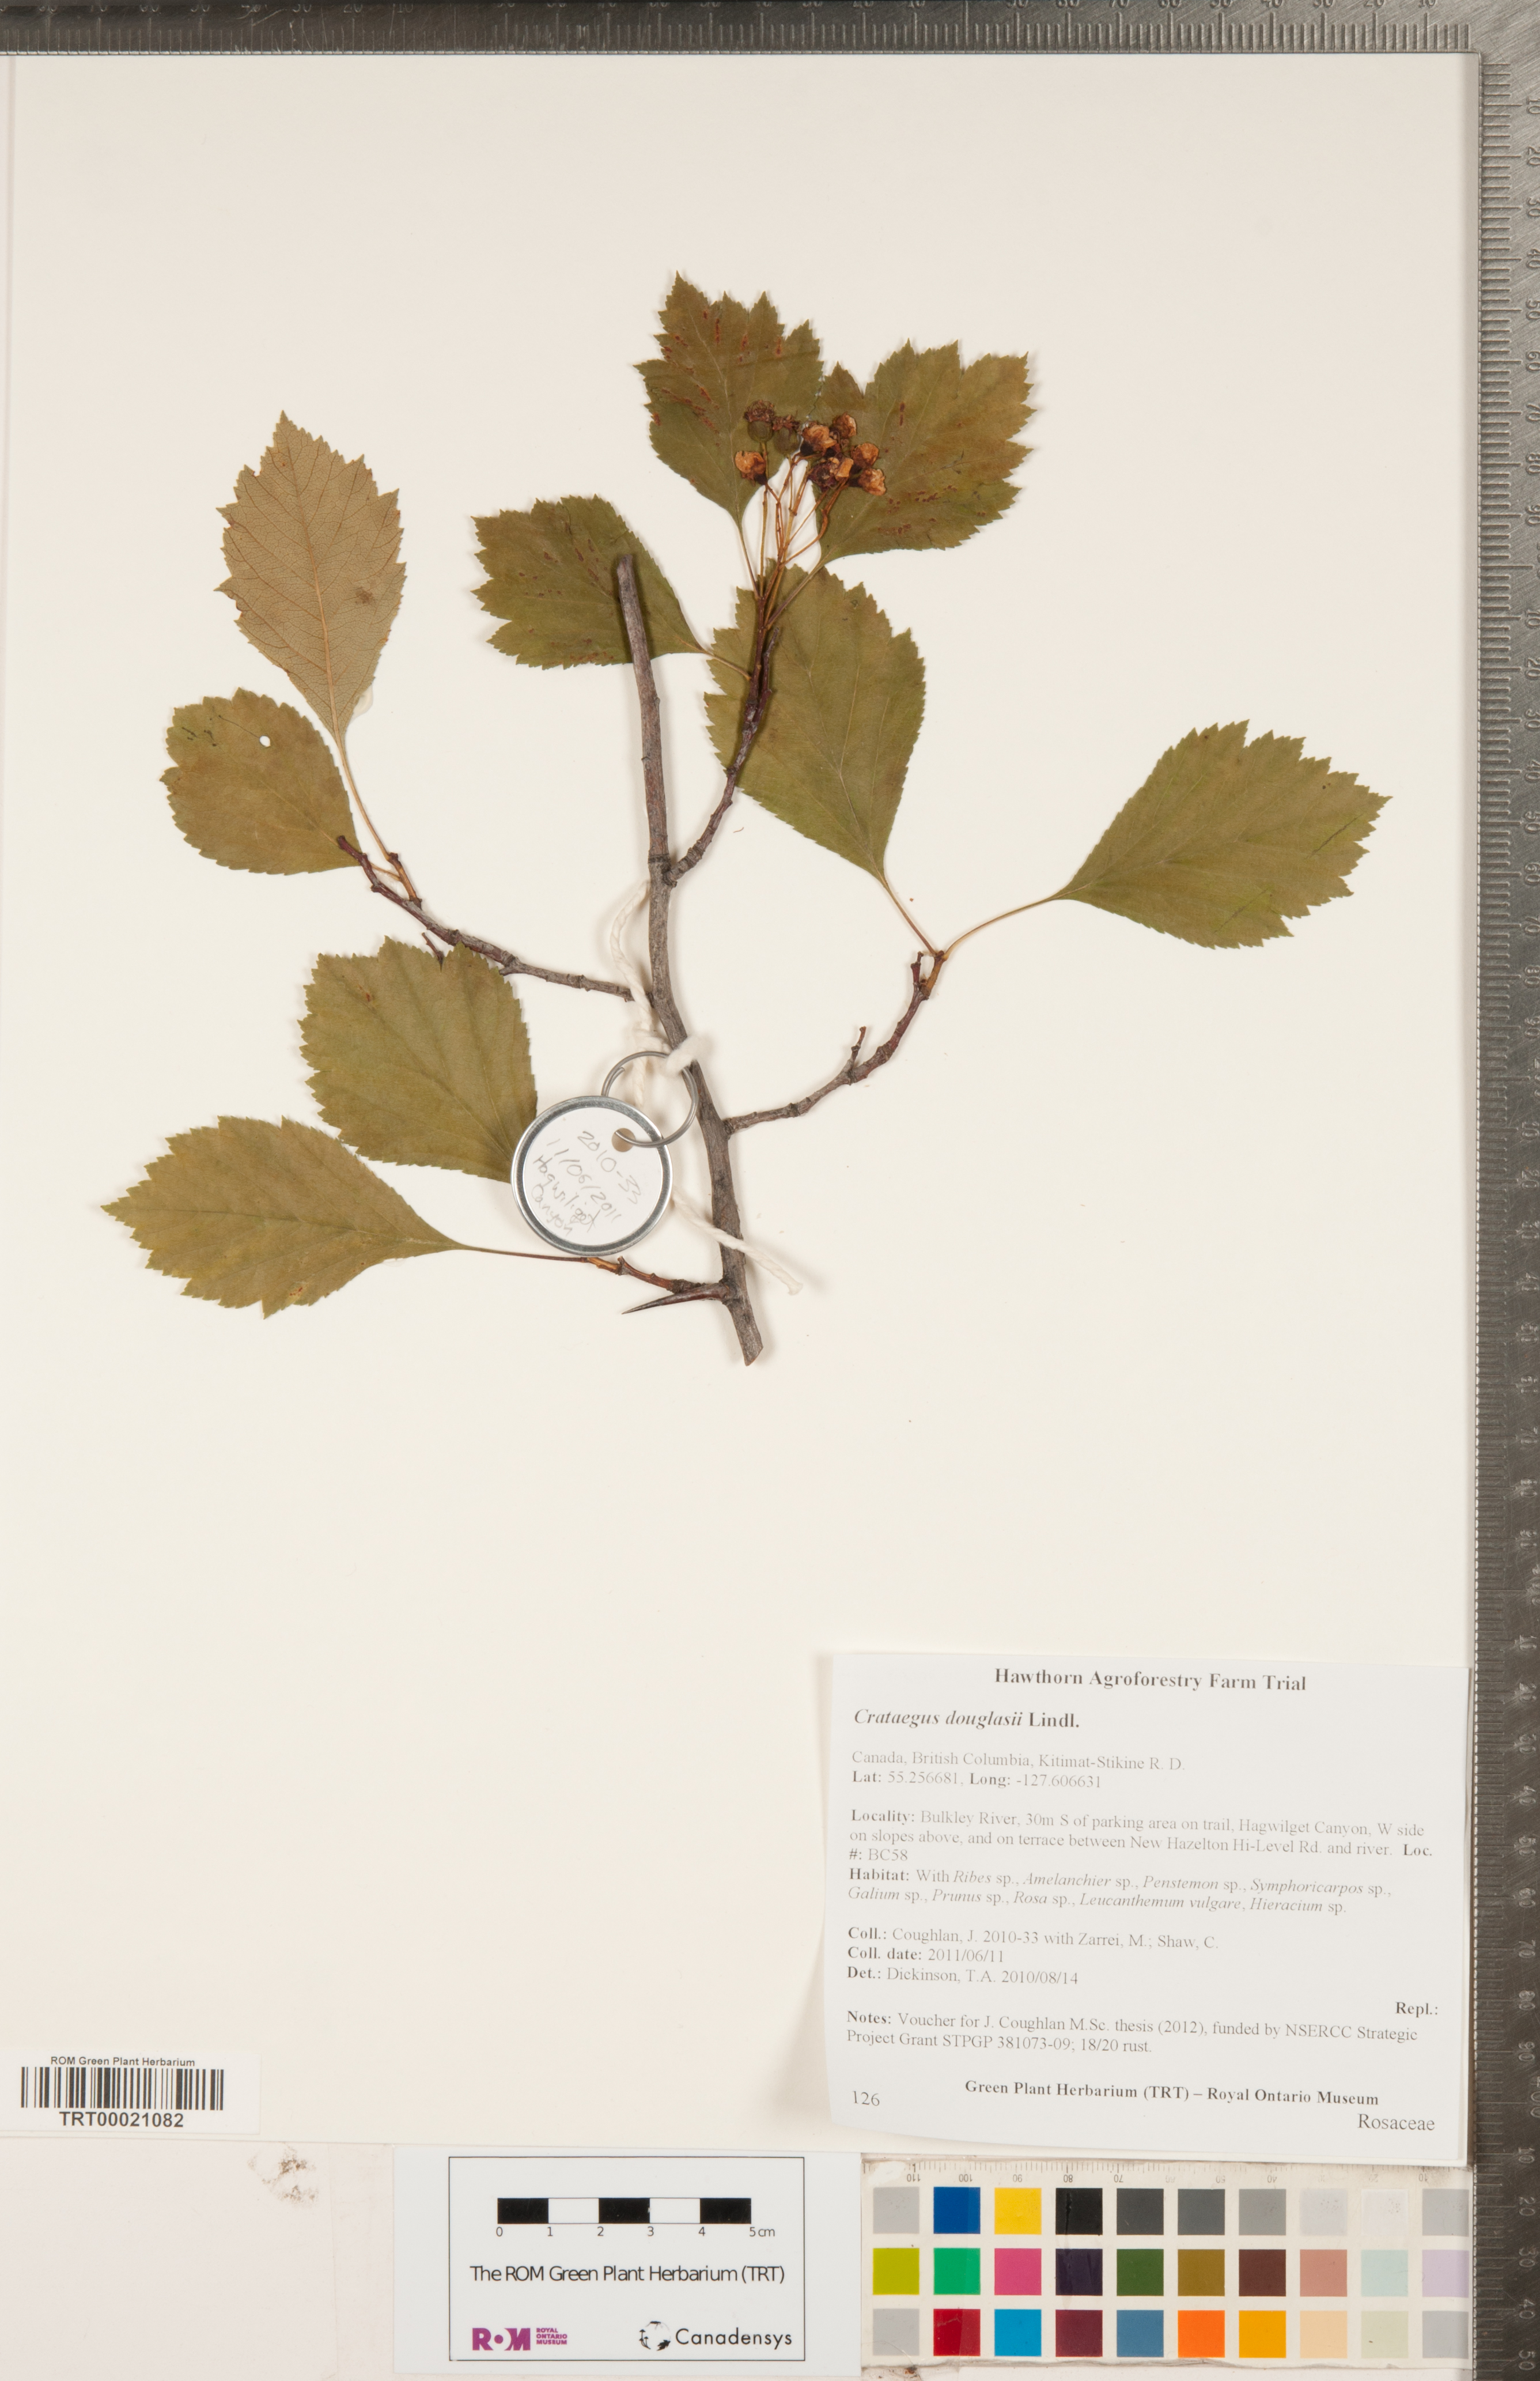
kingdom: Plantae
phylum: Tracheophyta
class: Magnoliopsida
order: Rosales
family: Rosaceae
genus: Crataegus
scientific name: Crataegus douglasii
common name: Black hawthorn
